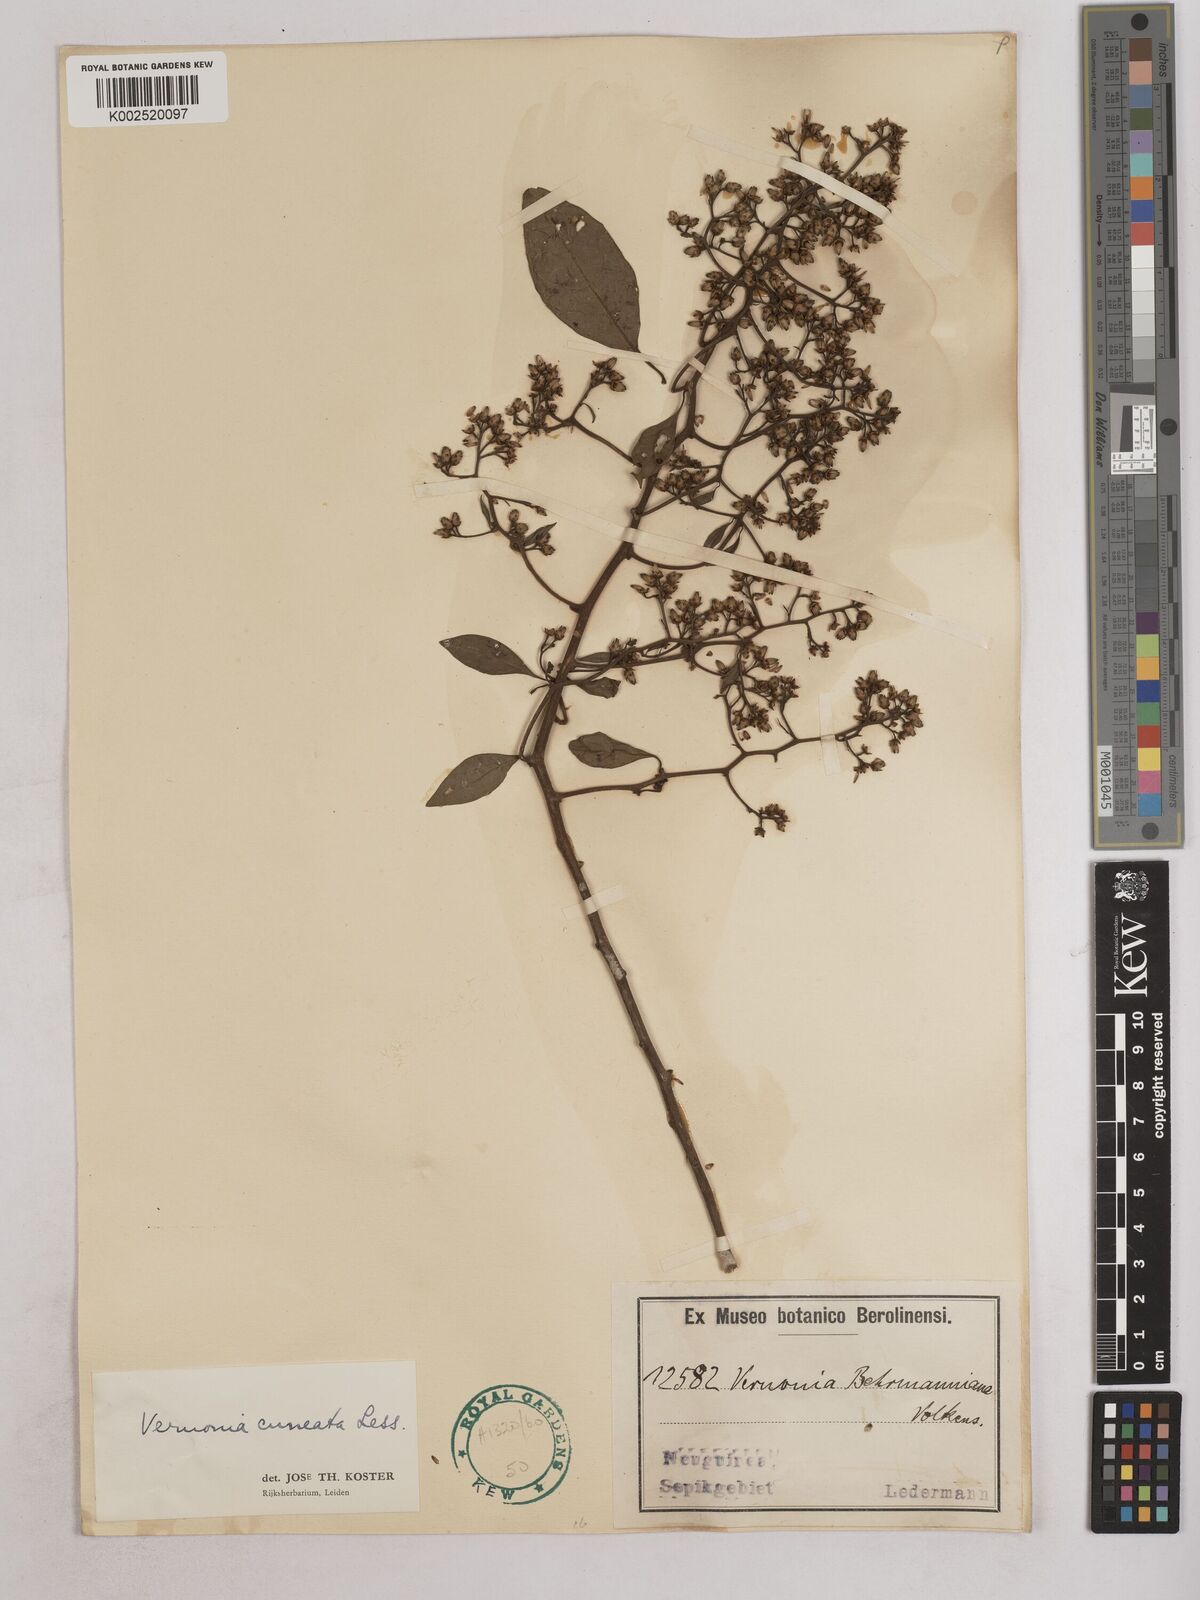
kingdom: Plantae
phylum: Tracheophyta
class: Magnoliopsida
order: Asterales
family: Asteraceae
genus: Decaneuropsis
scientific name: Decaneuropsis obovata
